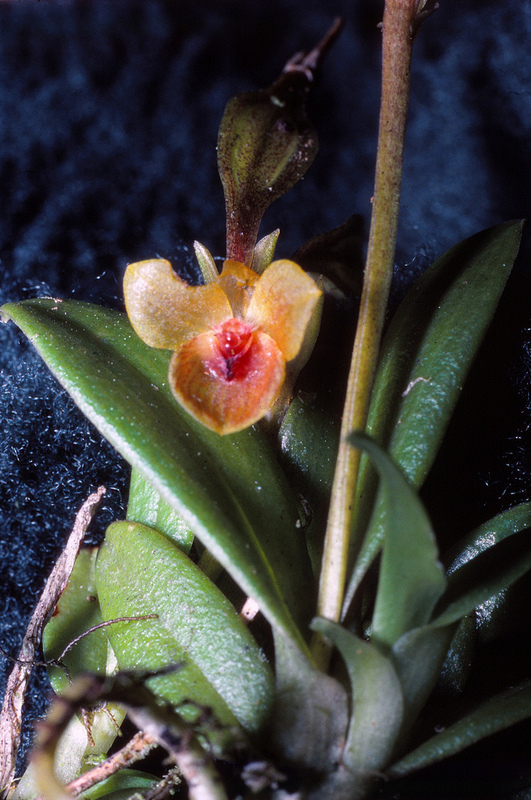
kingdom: Plantae
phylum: Tracheophyta
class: Liliopsida
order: Asparagales
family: Orchidaceae
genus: Telipogon
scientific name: Telipogon
